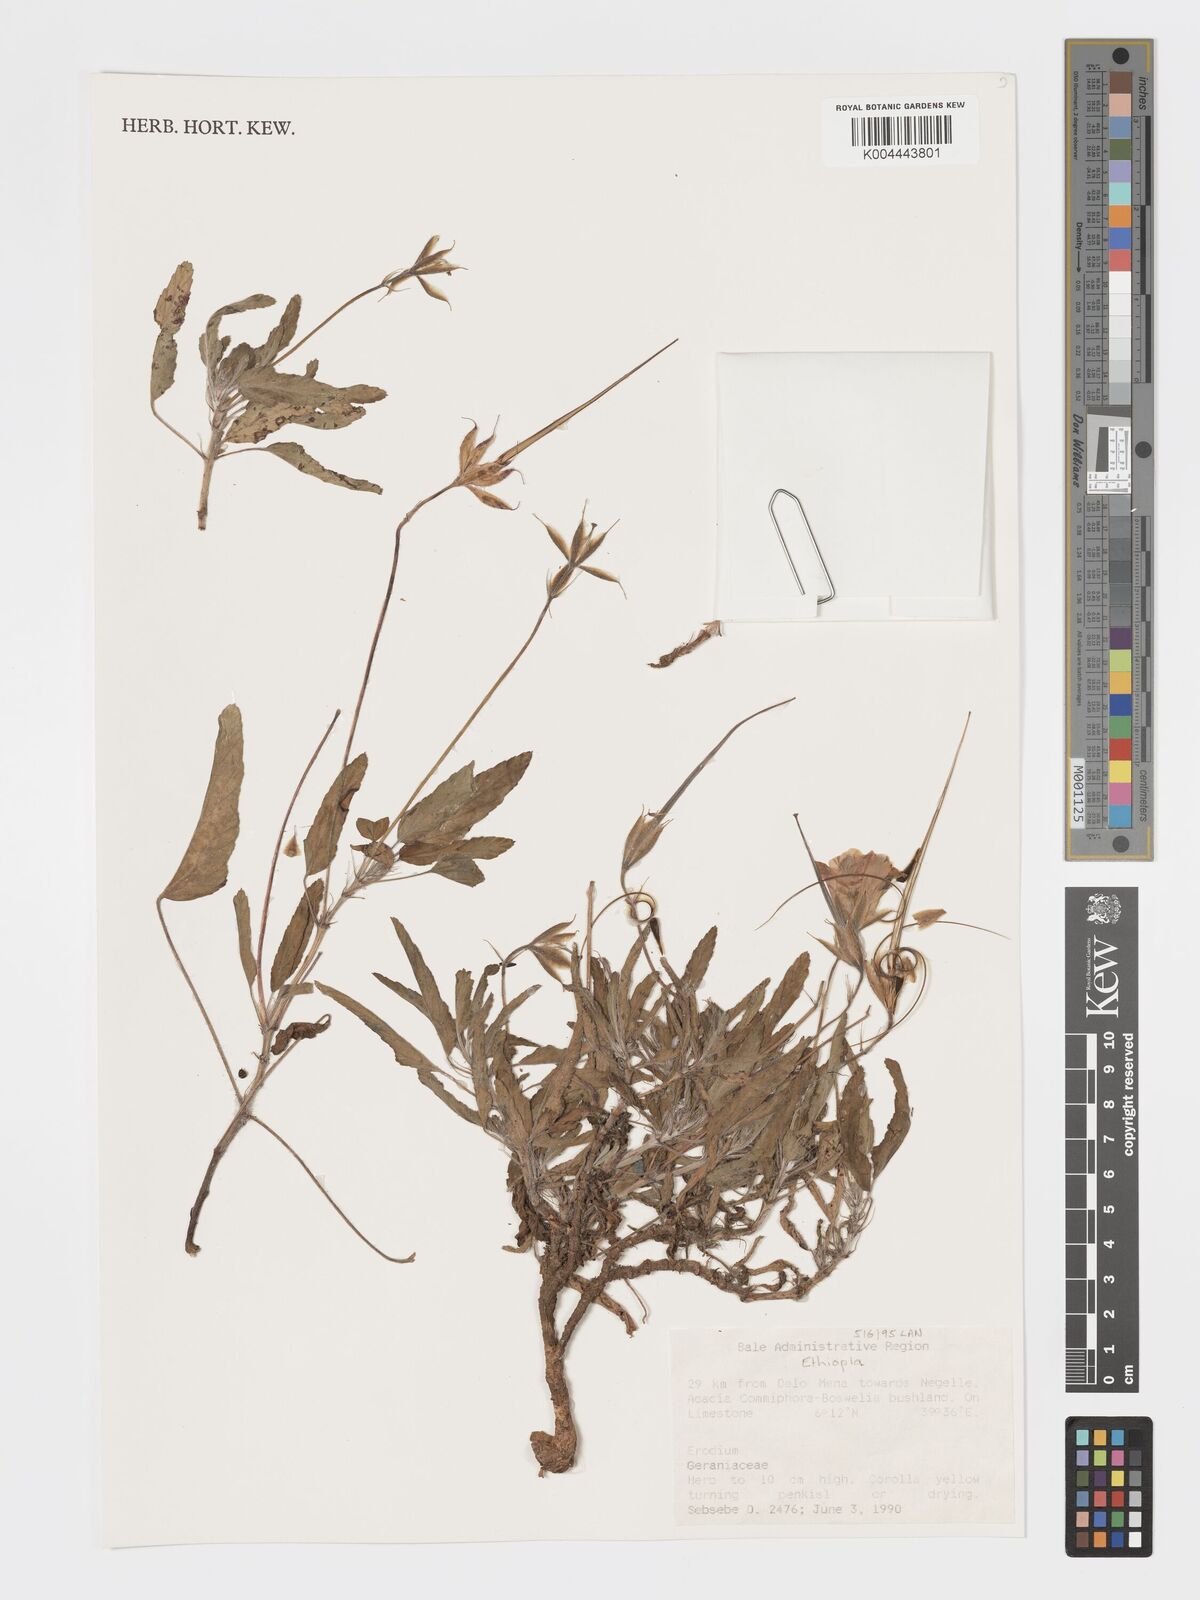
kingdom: Plantae
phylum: Tracheophyta
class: Magnoliopsida
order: Geraniales
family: Geraniaceae
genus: Erodium
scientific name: Erodium
